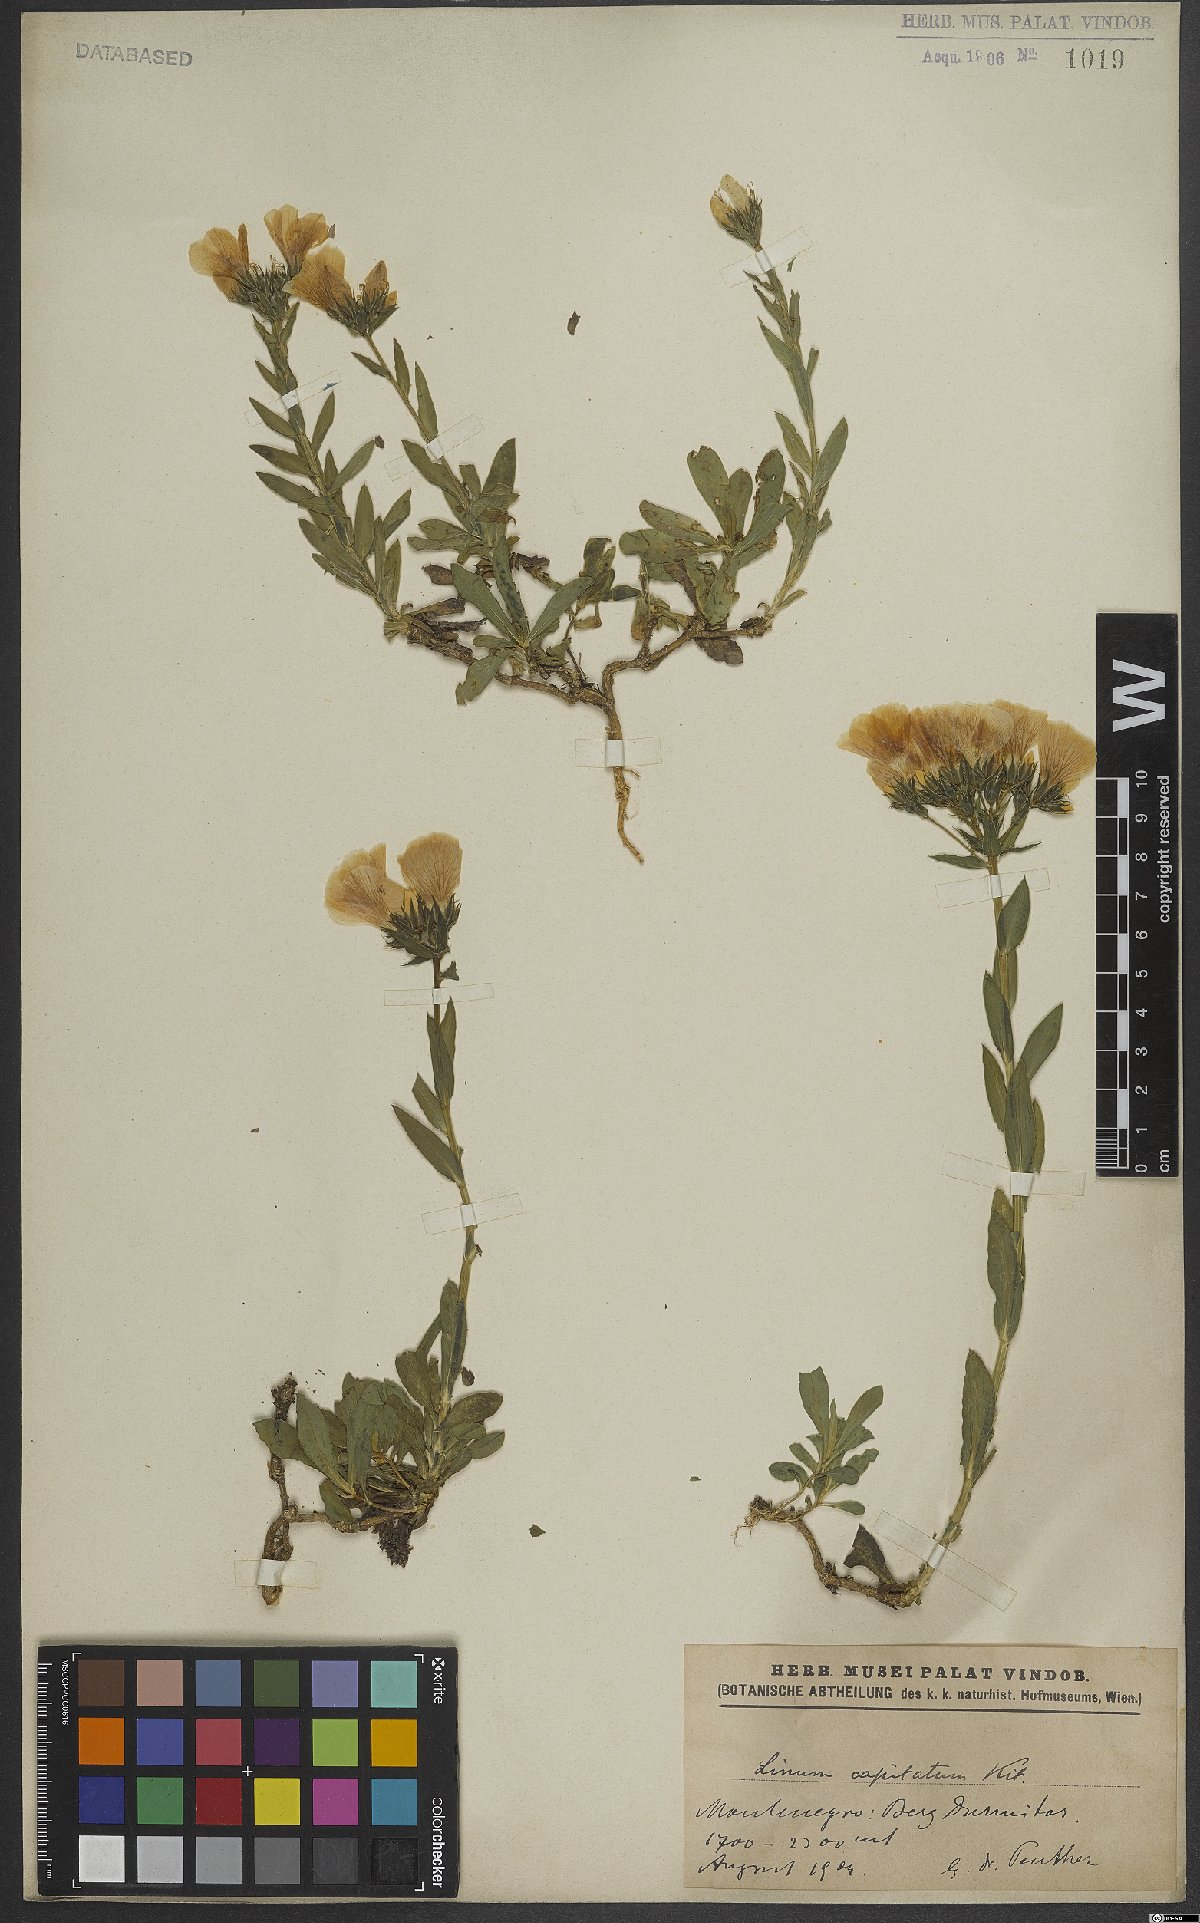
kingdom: Plantae
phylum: Tracheophyta
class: Magnoliopsida
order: Malpighiales
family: Linaceae
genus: Linum
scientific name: Linum capitatum
